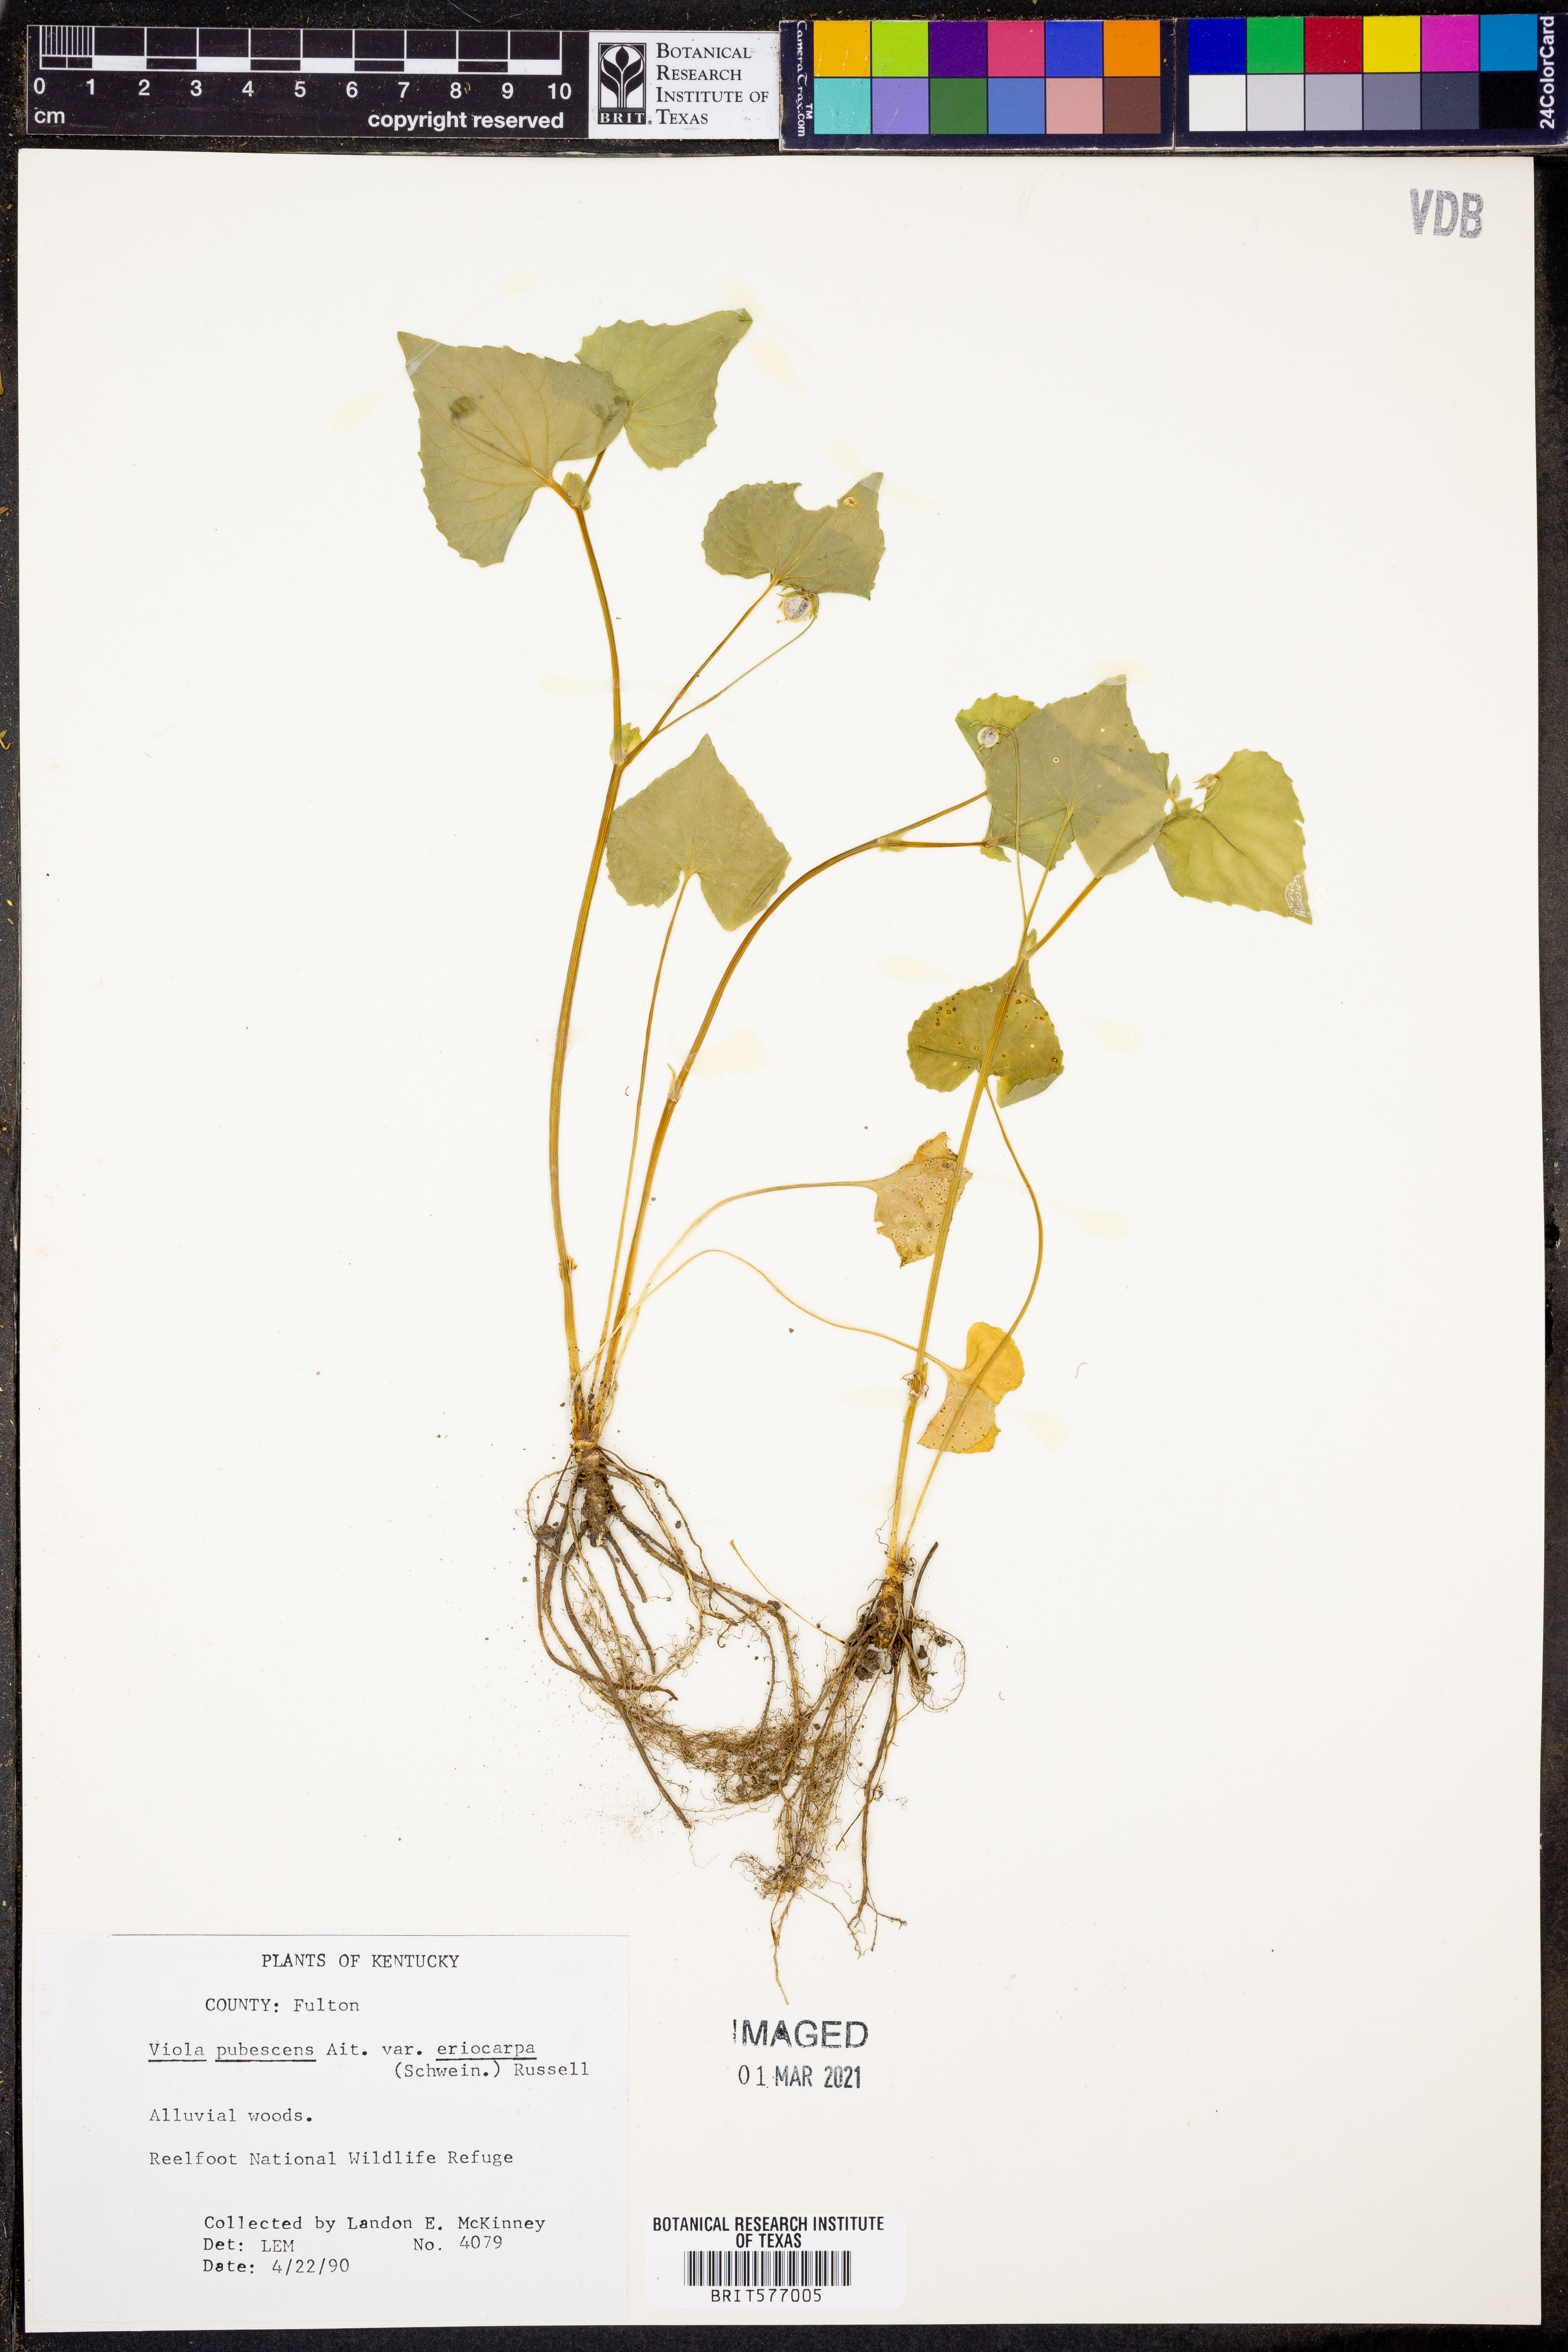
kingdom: Plantae
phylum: Tracheophyta
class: Magnoliopsida
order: Malpighiales
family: Violaceae
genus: Viola
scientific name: Viola eriocarpa
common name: Smooth yellow violet
